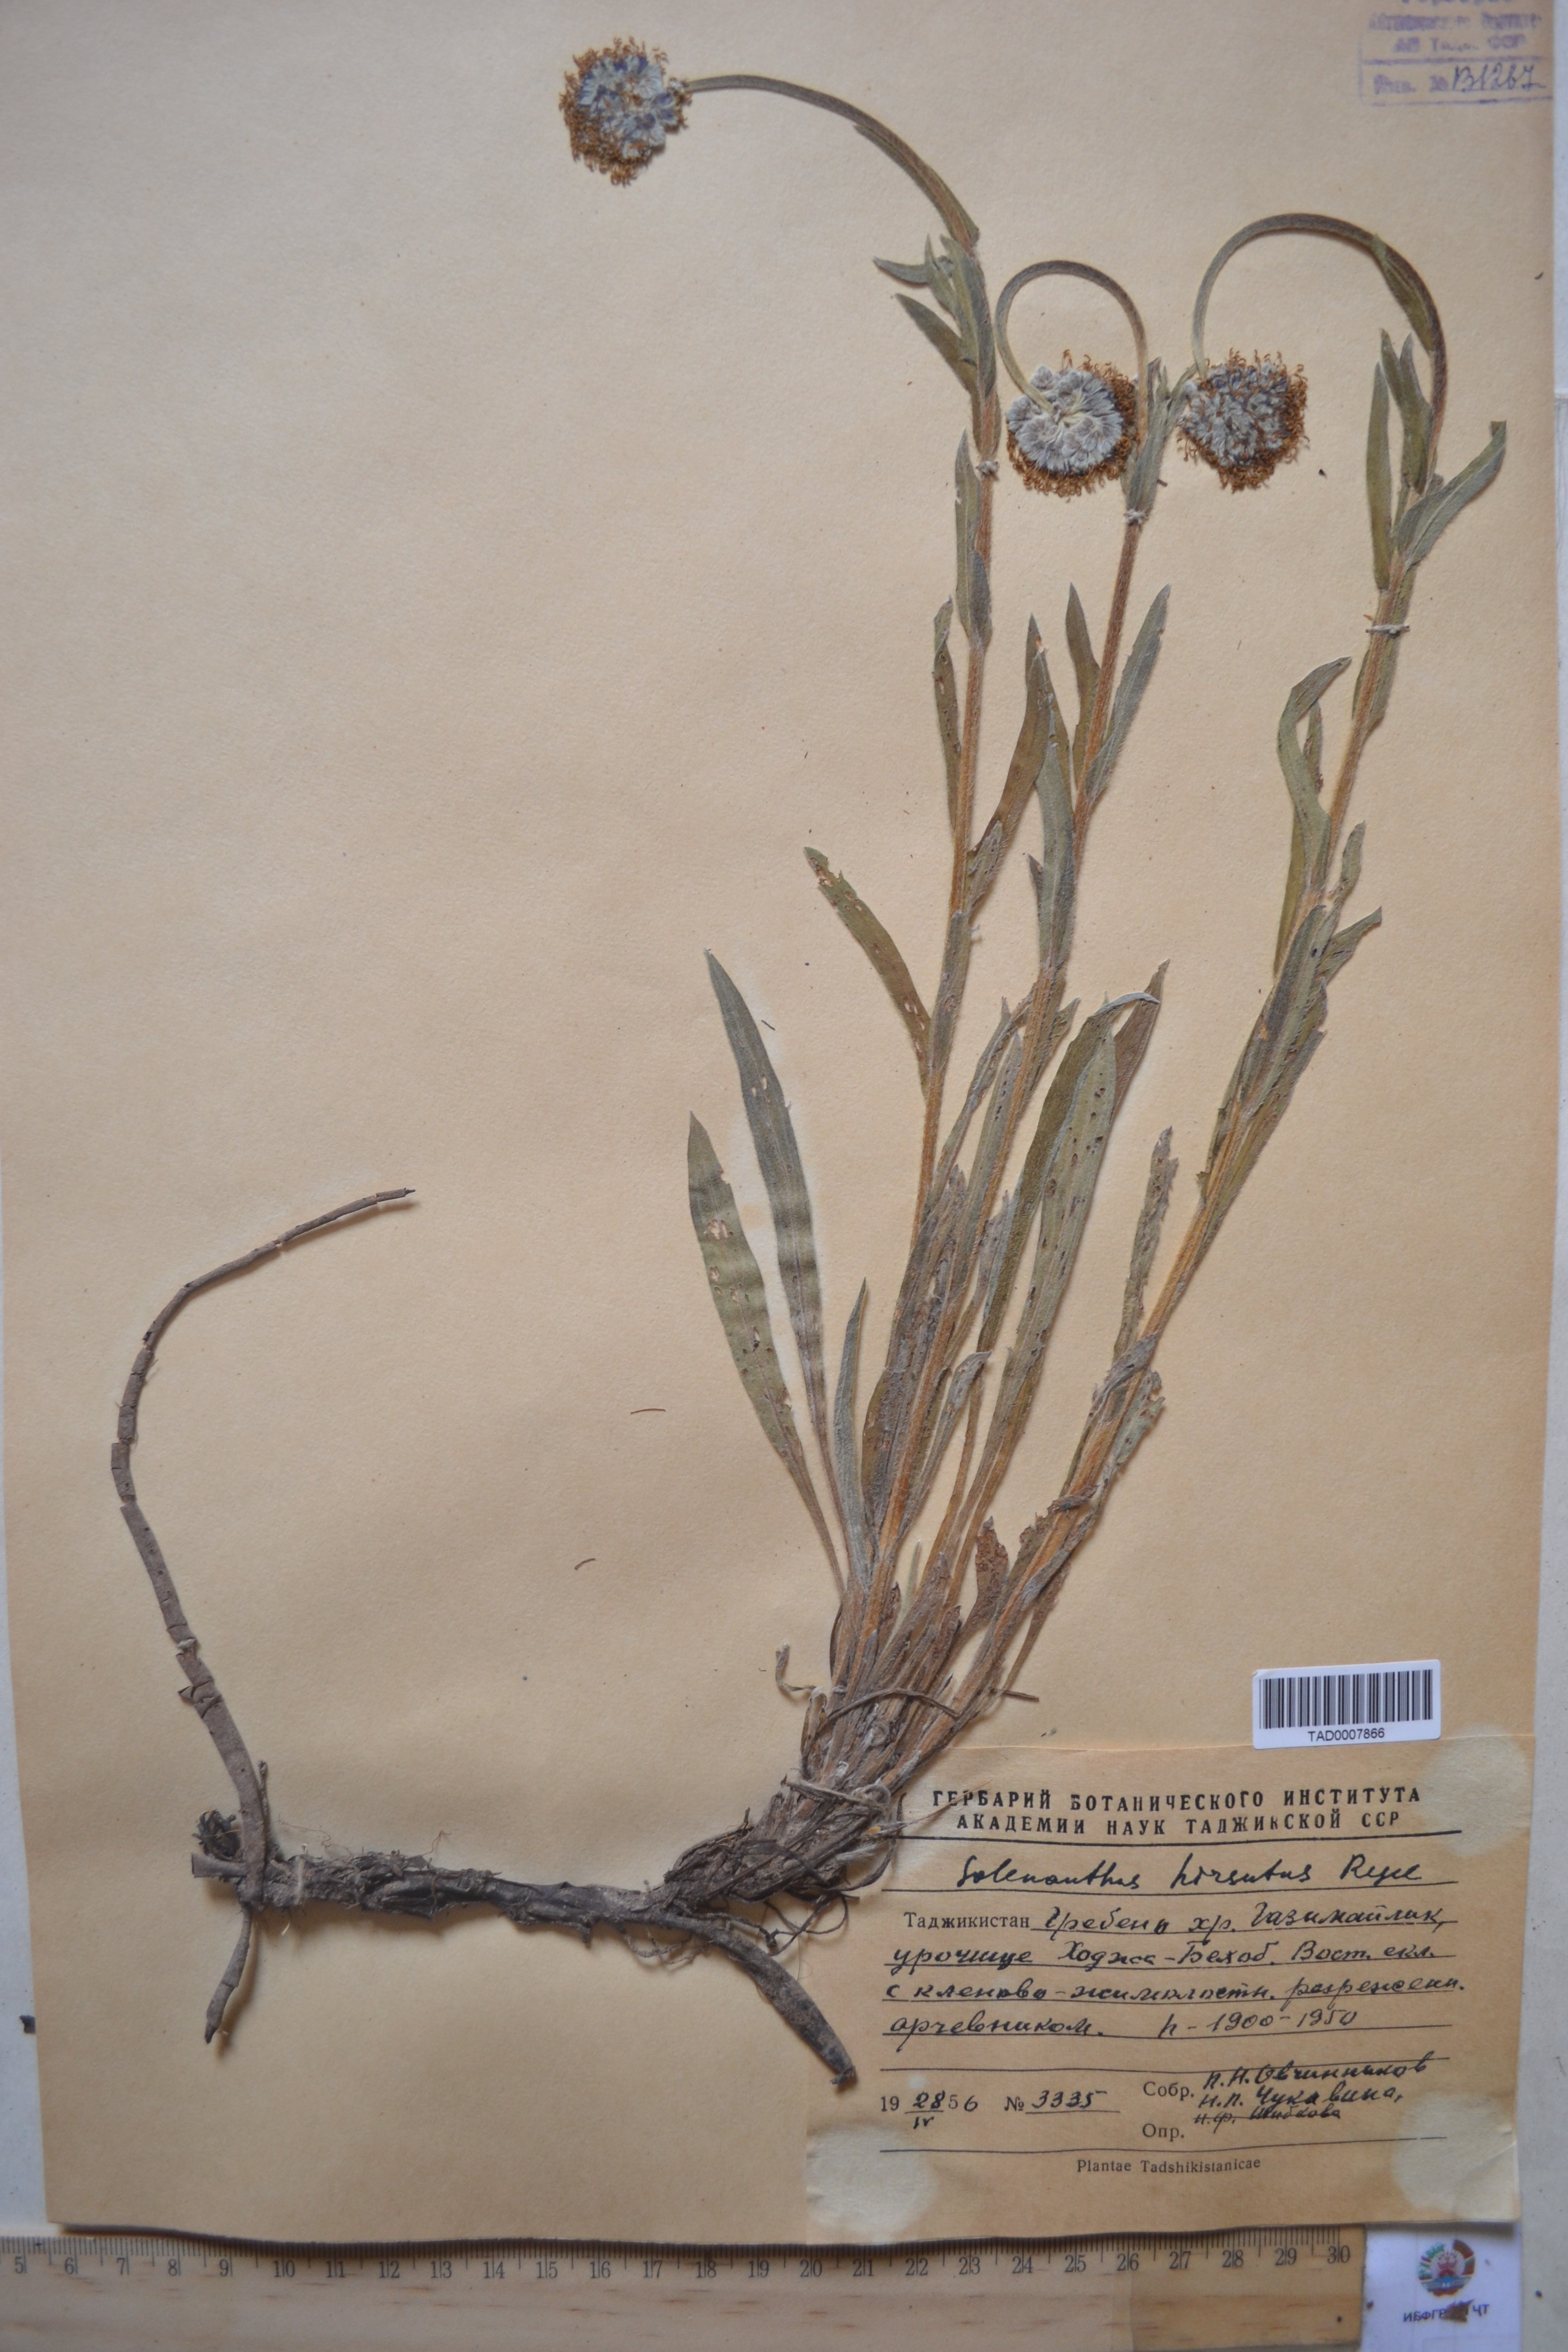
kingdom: Plantae
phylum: Tracheophyta
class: Magnoliopsida
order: Boraginales
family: Boraginaceae
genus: Solenanthus
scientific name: Solenanthus hirsutus
